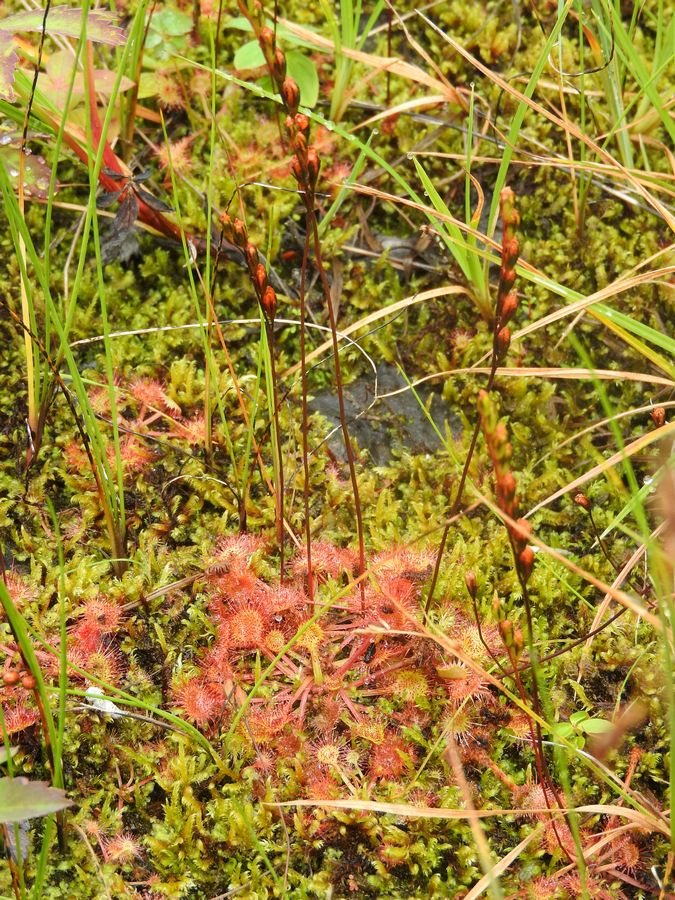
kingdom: Plantae
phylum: Tracheophyta
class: Magnoliopsida
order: Caryophyllales
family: Droseraceae
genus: Drosera
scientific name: Drosera rotundifolia
